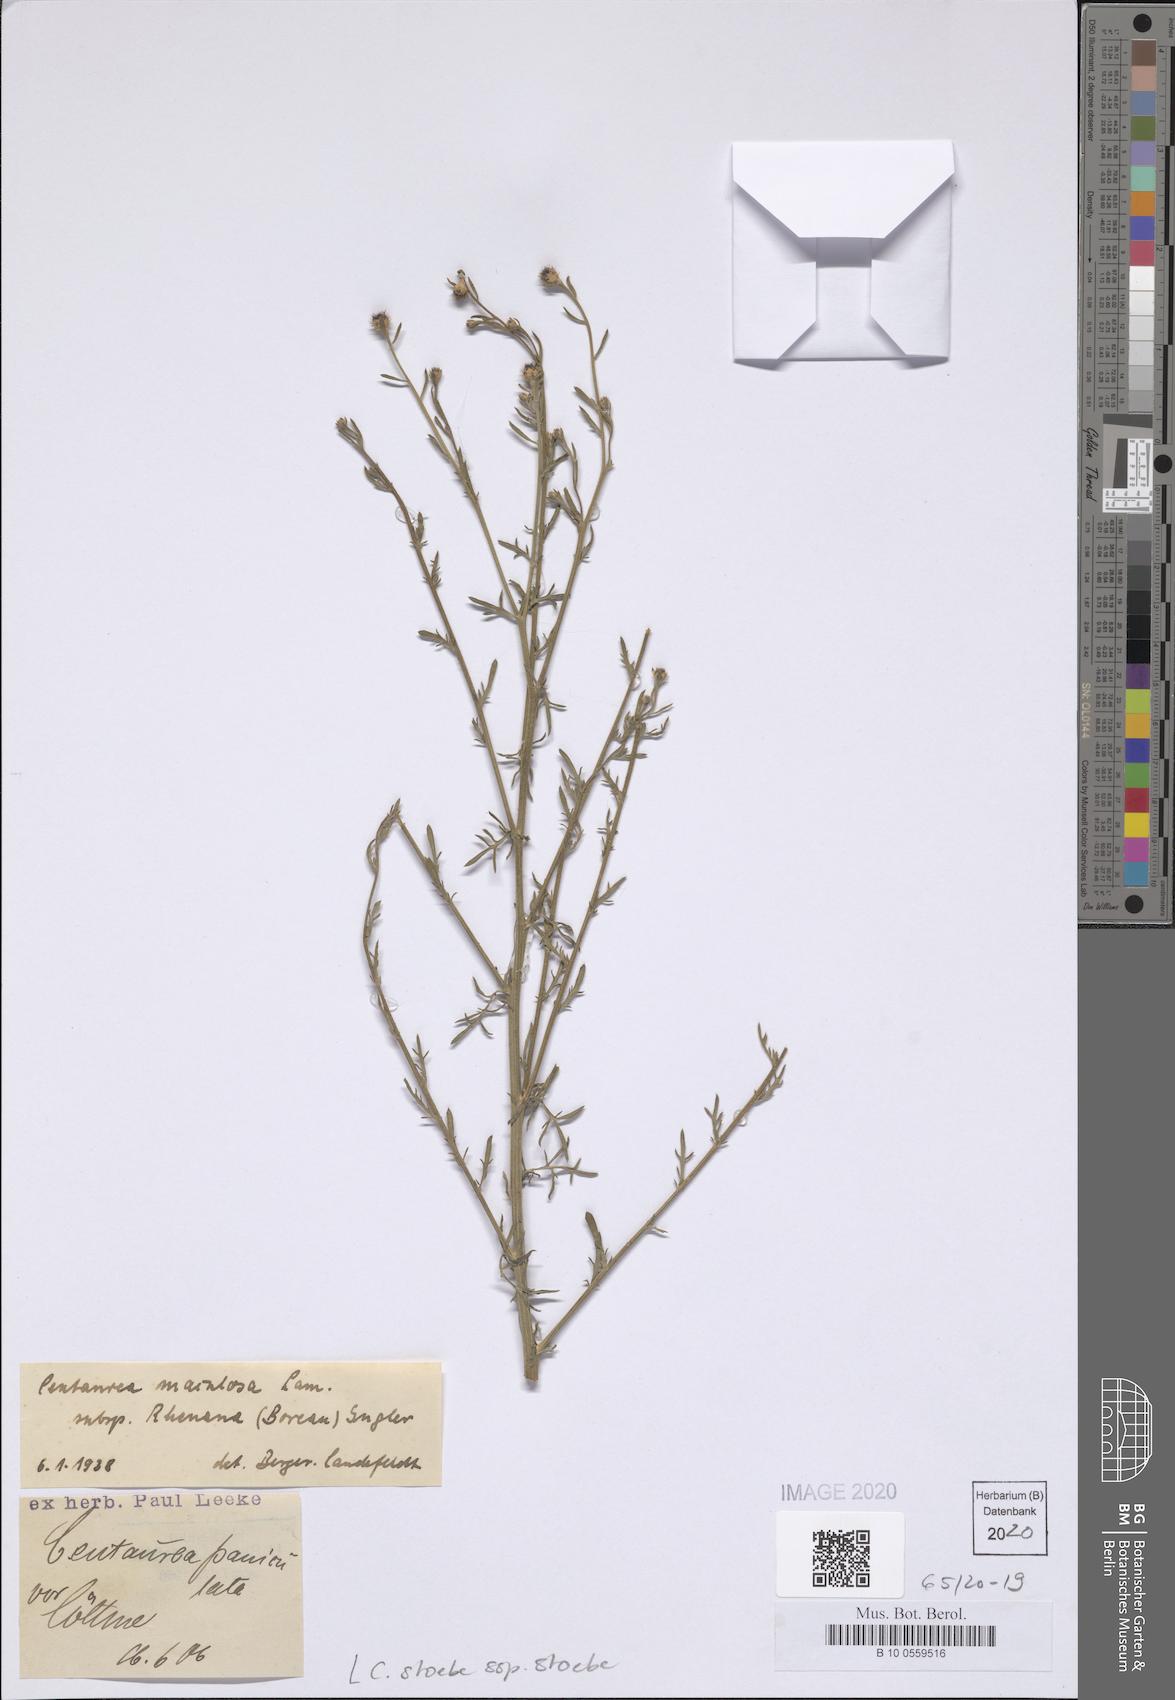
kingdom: Plantae
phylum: Tracheophyta
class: Magnoliopsida
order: Asterales
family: Asteraceae
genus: Centaurea
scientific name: Centaurea stoebe
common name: Spotted knapweed
